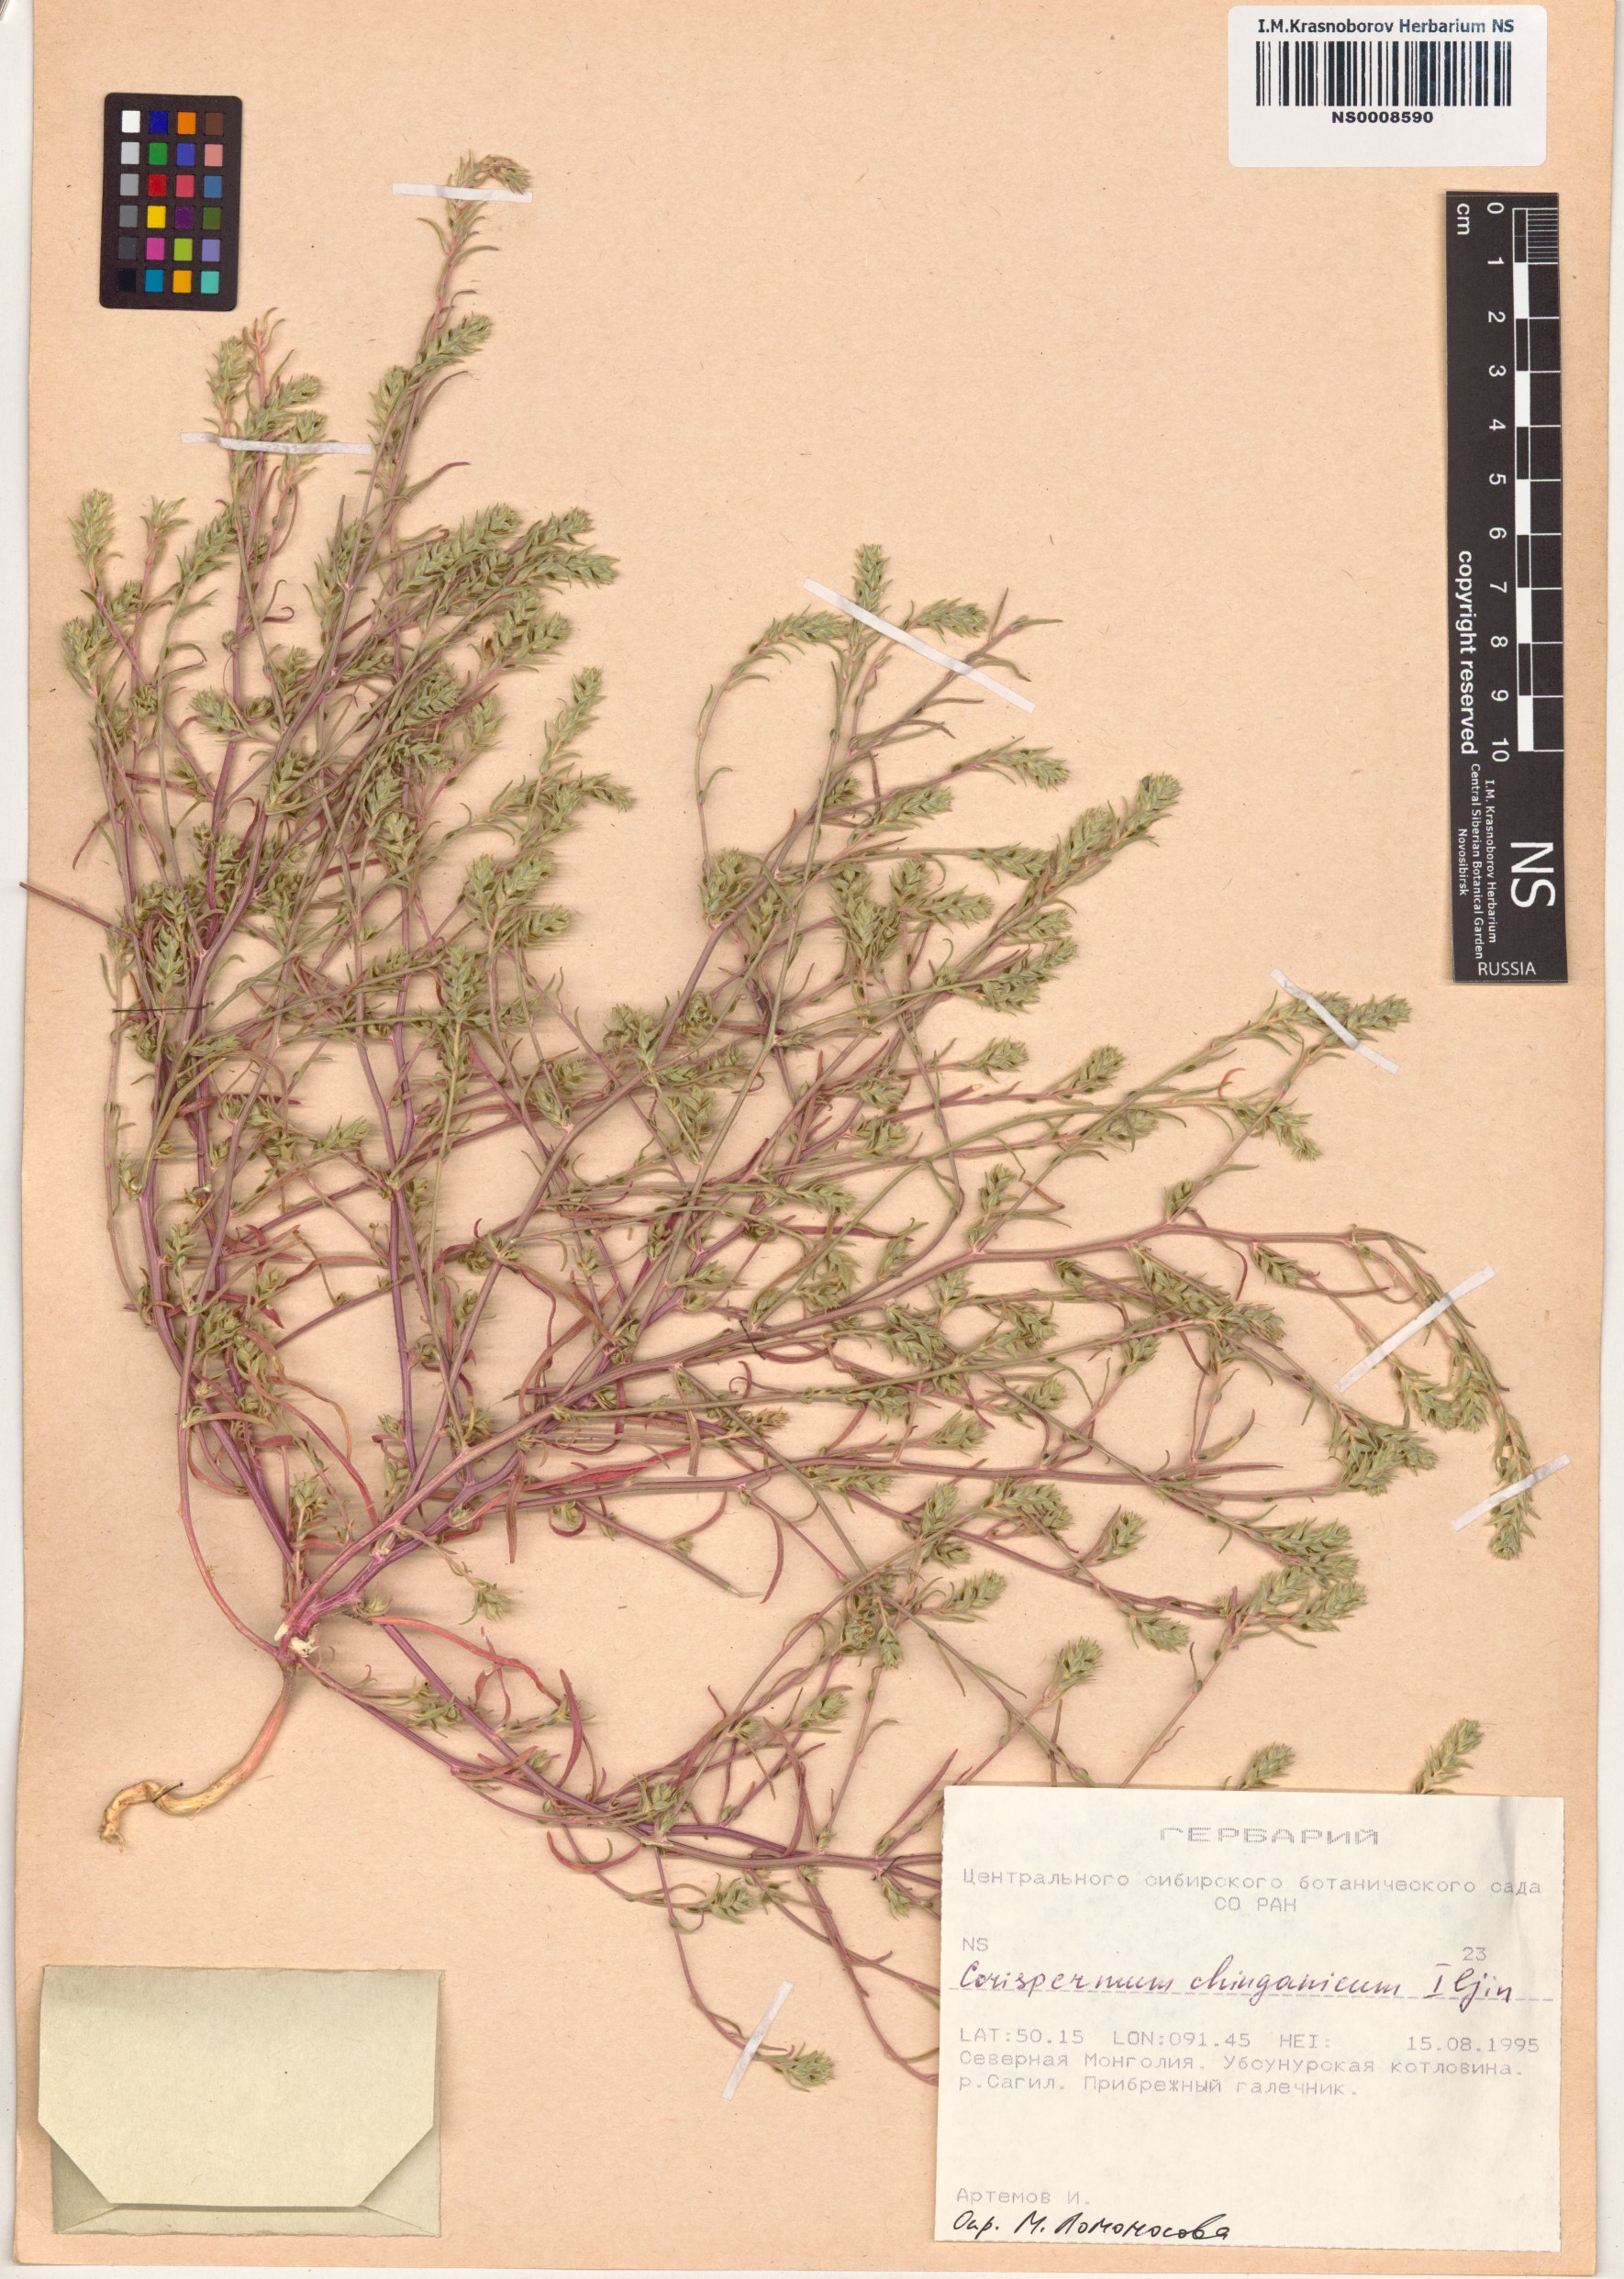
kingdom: Plantae
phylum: Tracheophyta
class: Magnoliopsida
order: Caryophyllales
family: Amaranthaceae
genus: Corispermum
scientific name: Corispermum chinganicum
